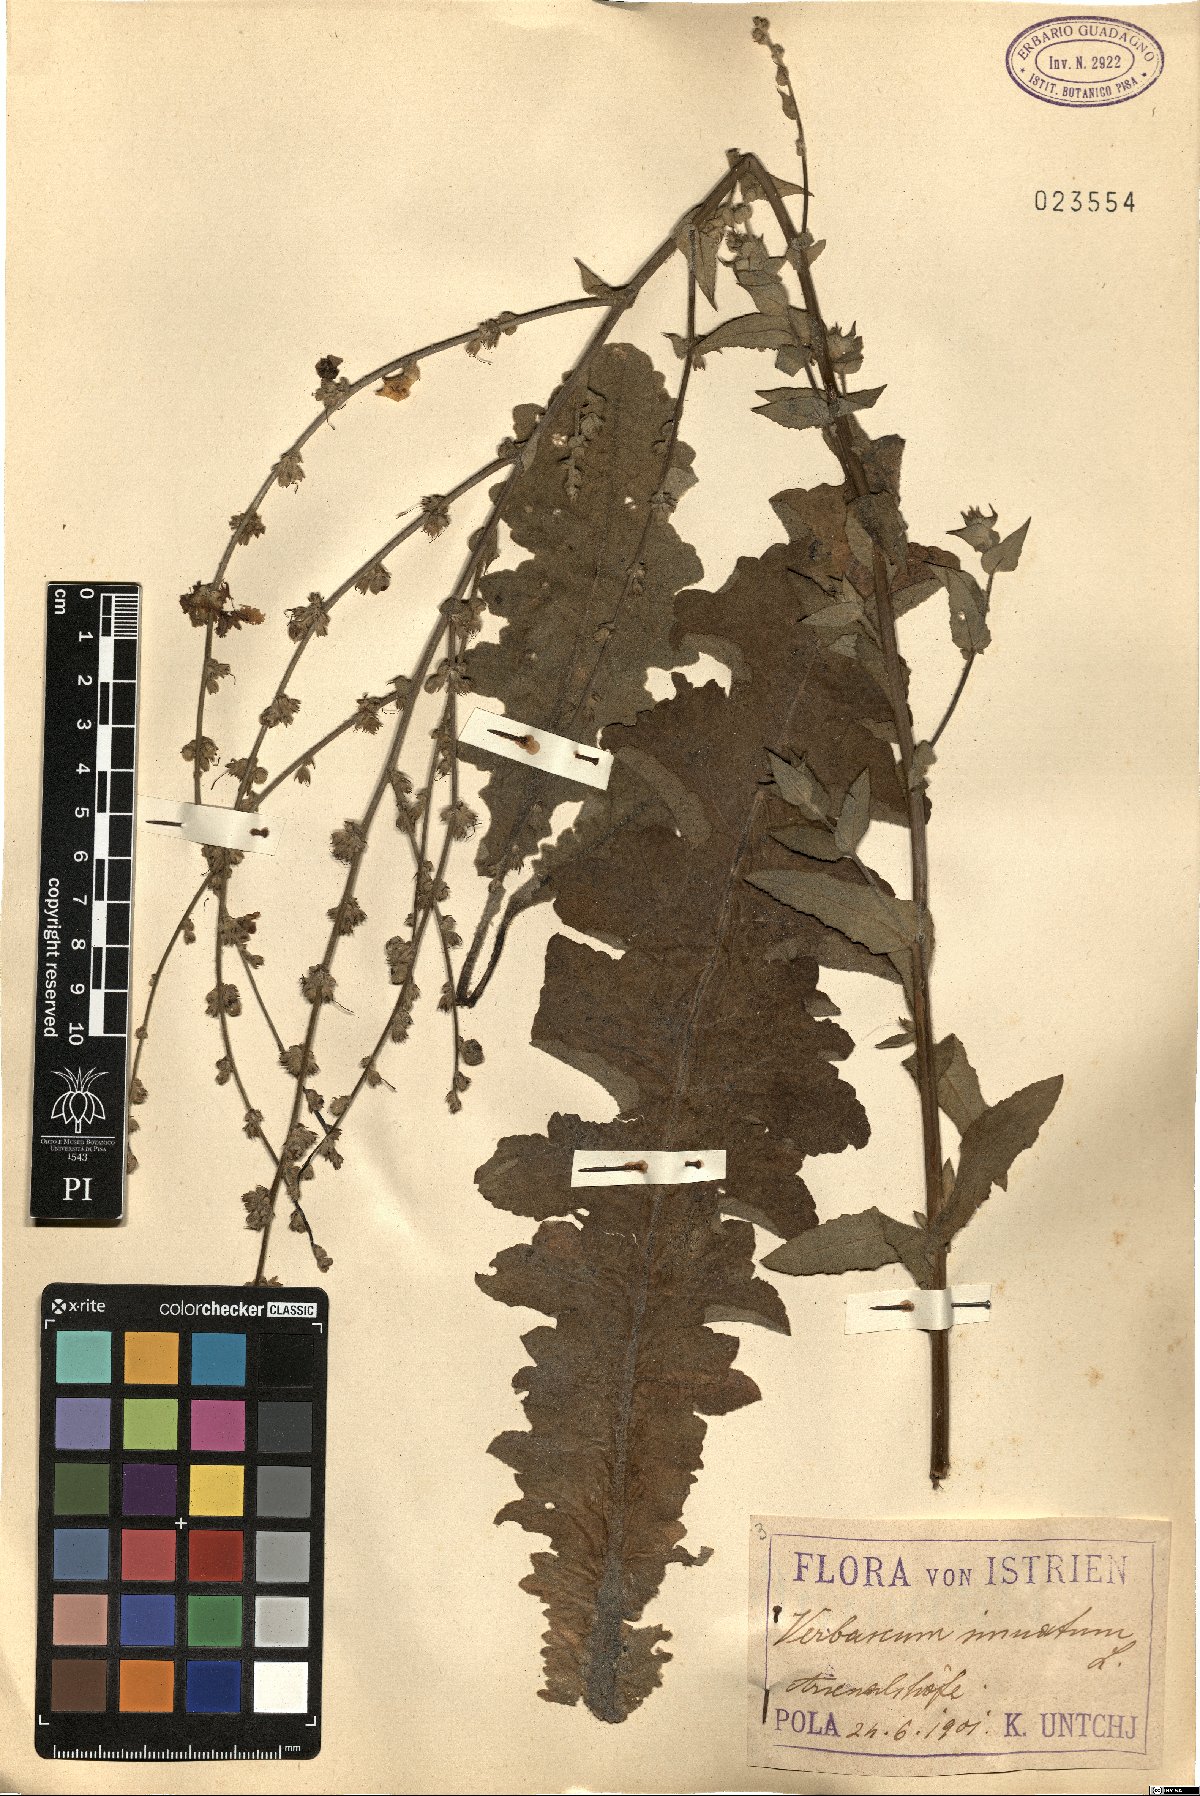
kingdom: Plantae
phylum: Tracheophyta
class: Magnoliopsida
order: Lamiales
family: Scrophulariaceae
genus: Verbascum
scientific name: Verbascum sinuatum
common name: Wavyleaf mullein
